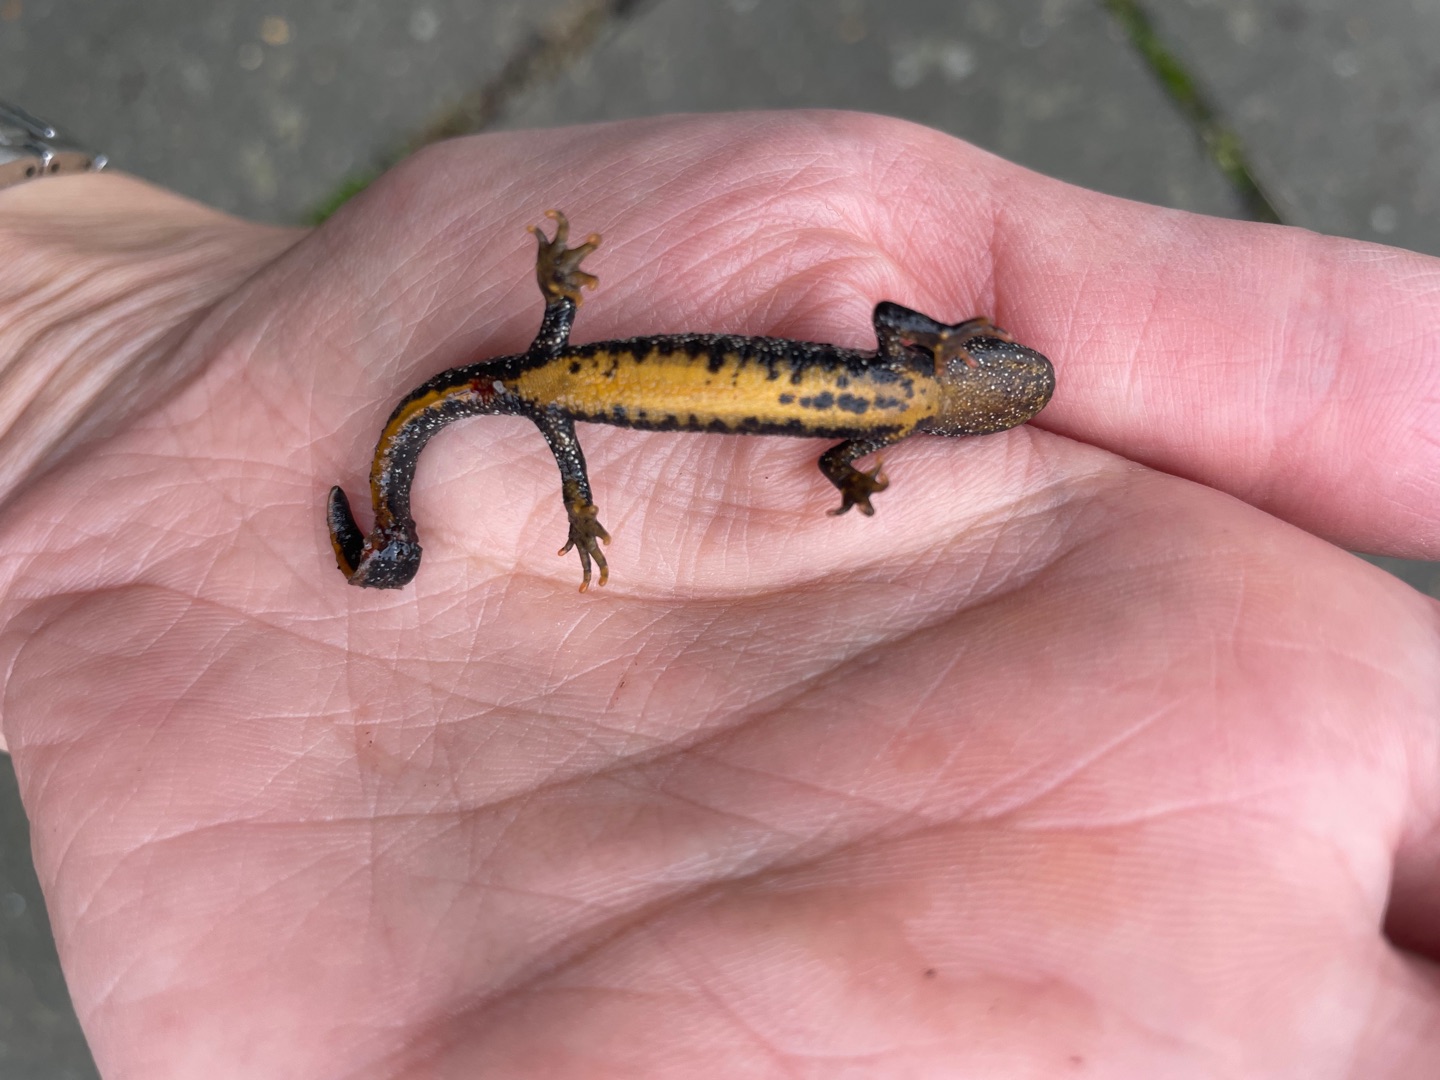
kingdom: Animalia
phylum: Chordata
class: Amphibia
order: Caudata
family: Salamandridae
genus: Triturus
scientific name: Triturus cristatus
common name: Stor vandsalamander
